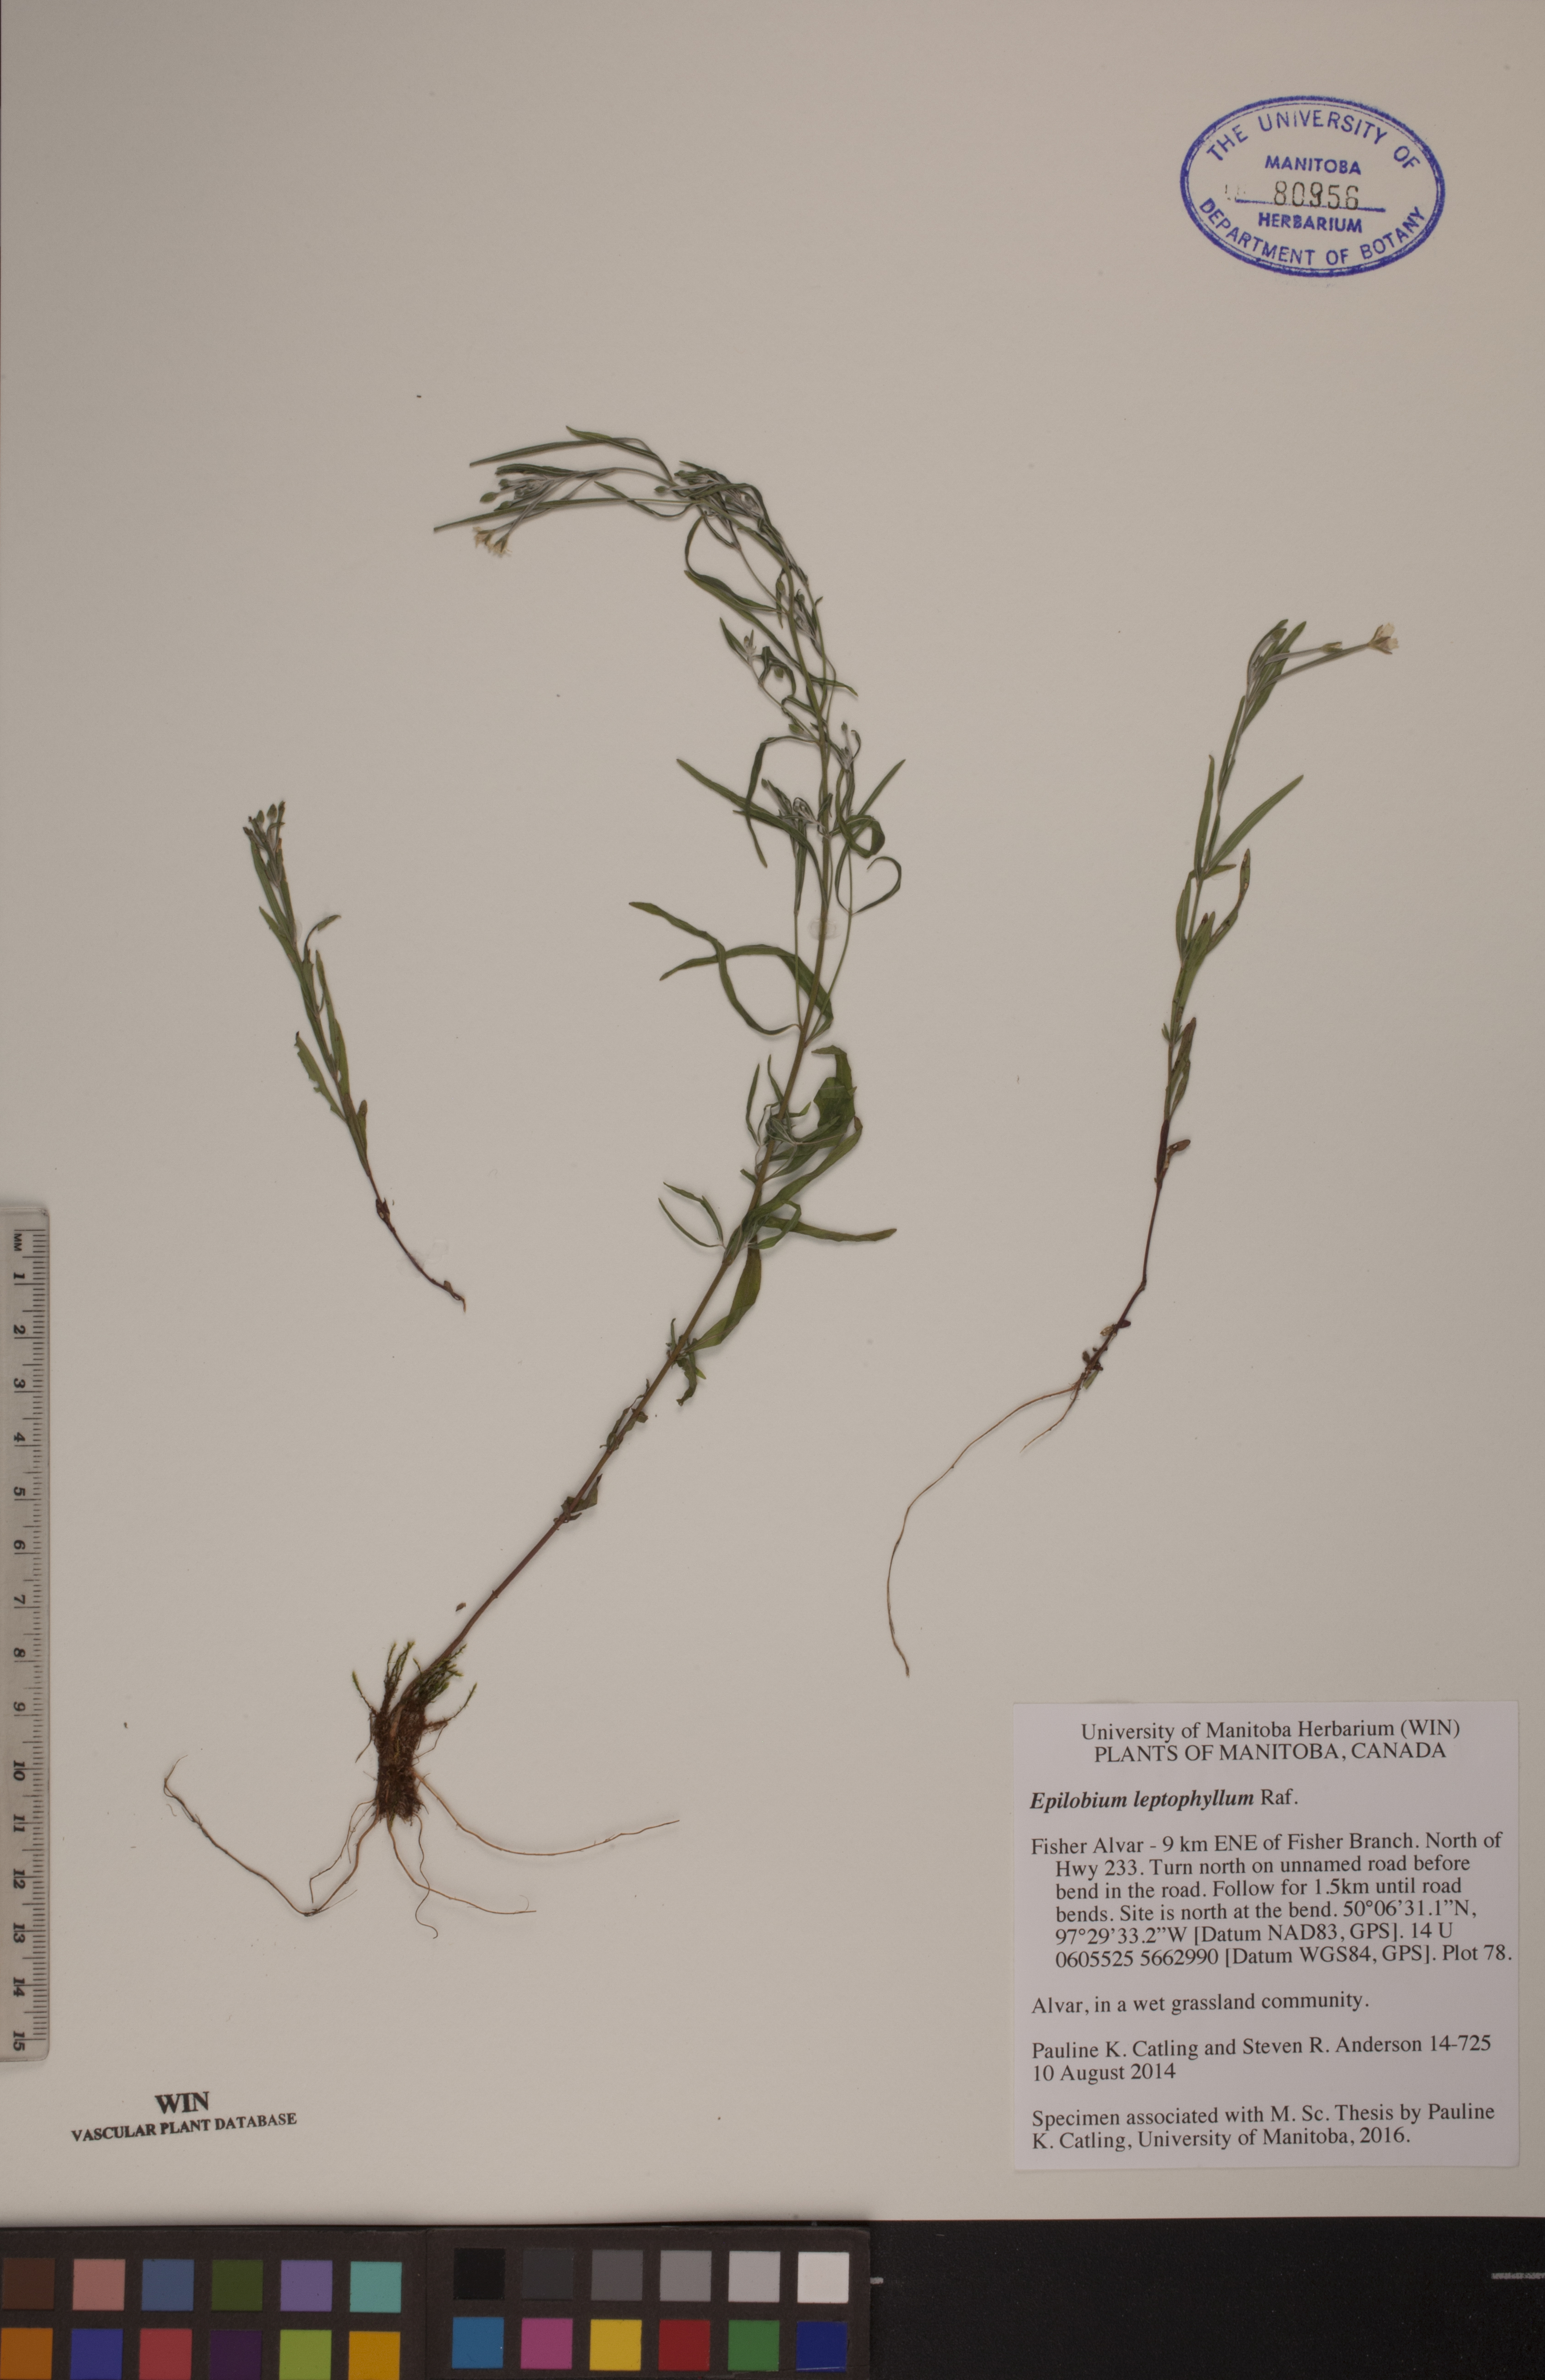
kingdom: Plantae
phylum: Tracheophyta
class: Magnoliopsida
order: Myrtales
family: Onagraceae
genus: Epilobium
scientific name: Epilobium leptophyllum
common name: Bog willowherb
